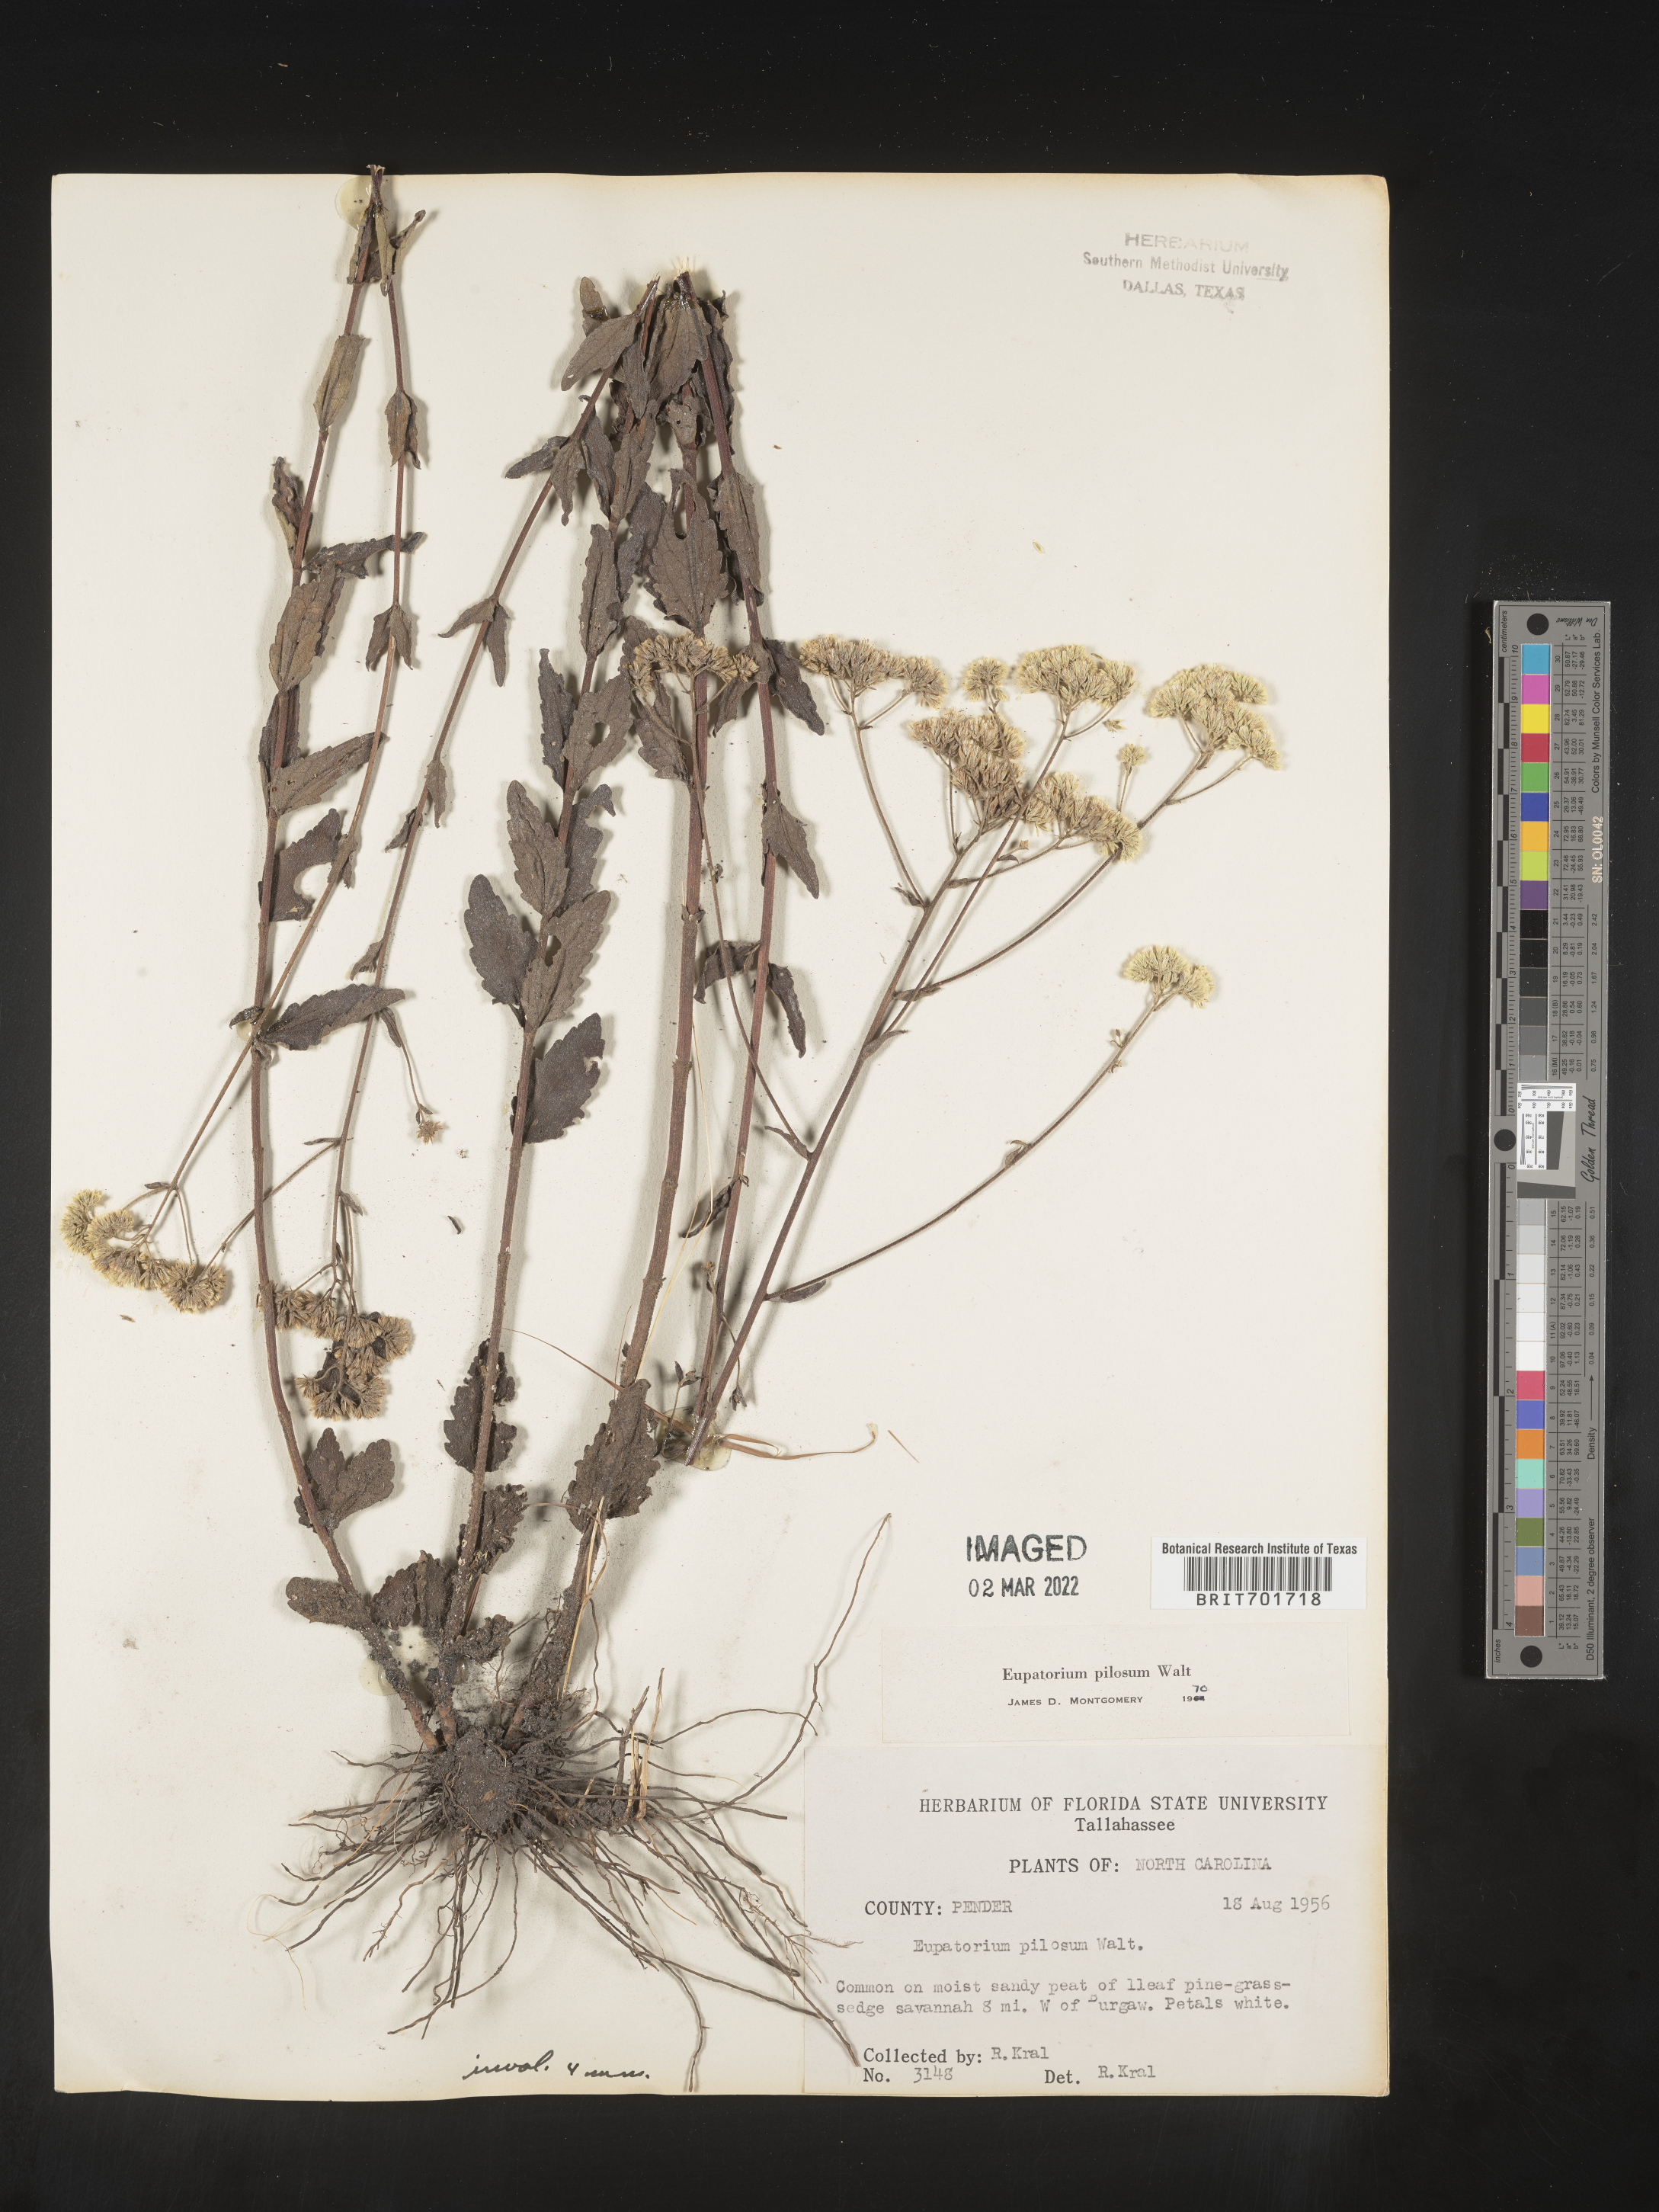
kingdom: Plantae
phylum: Tracheophyta
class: Magnoliopsida
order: Asterales
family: Asteraceae
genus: Eupatorium
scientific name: Eupatorium pilosum
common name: Rough boneset
